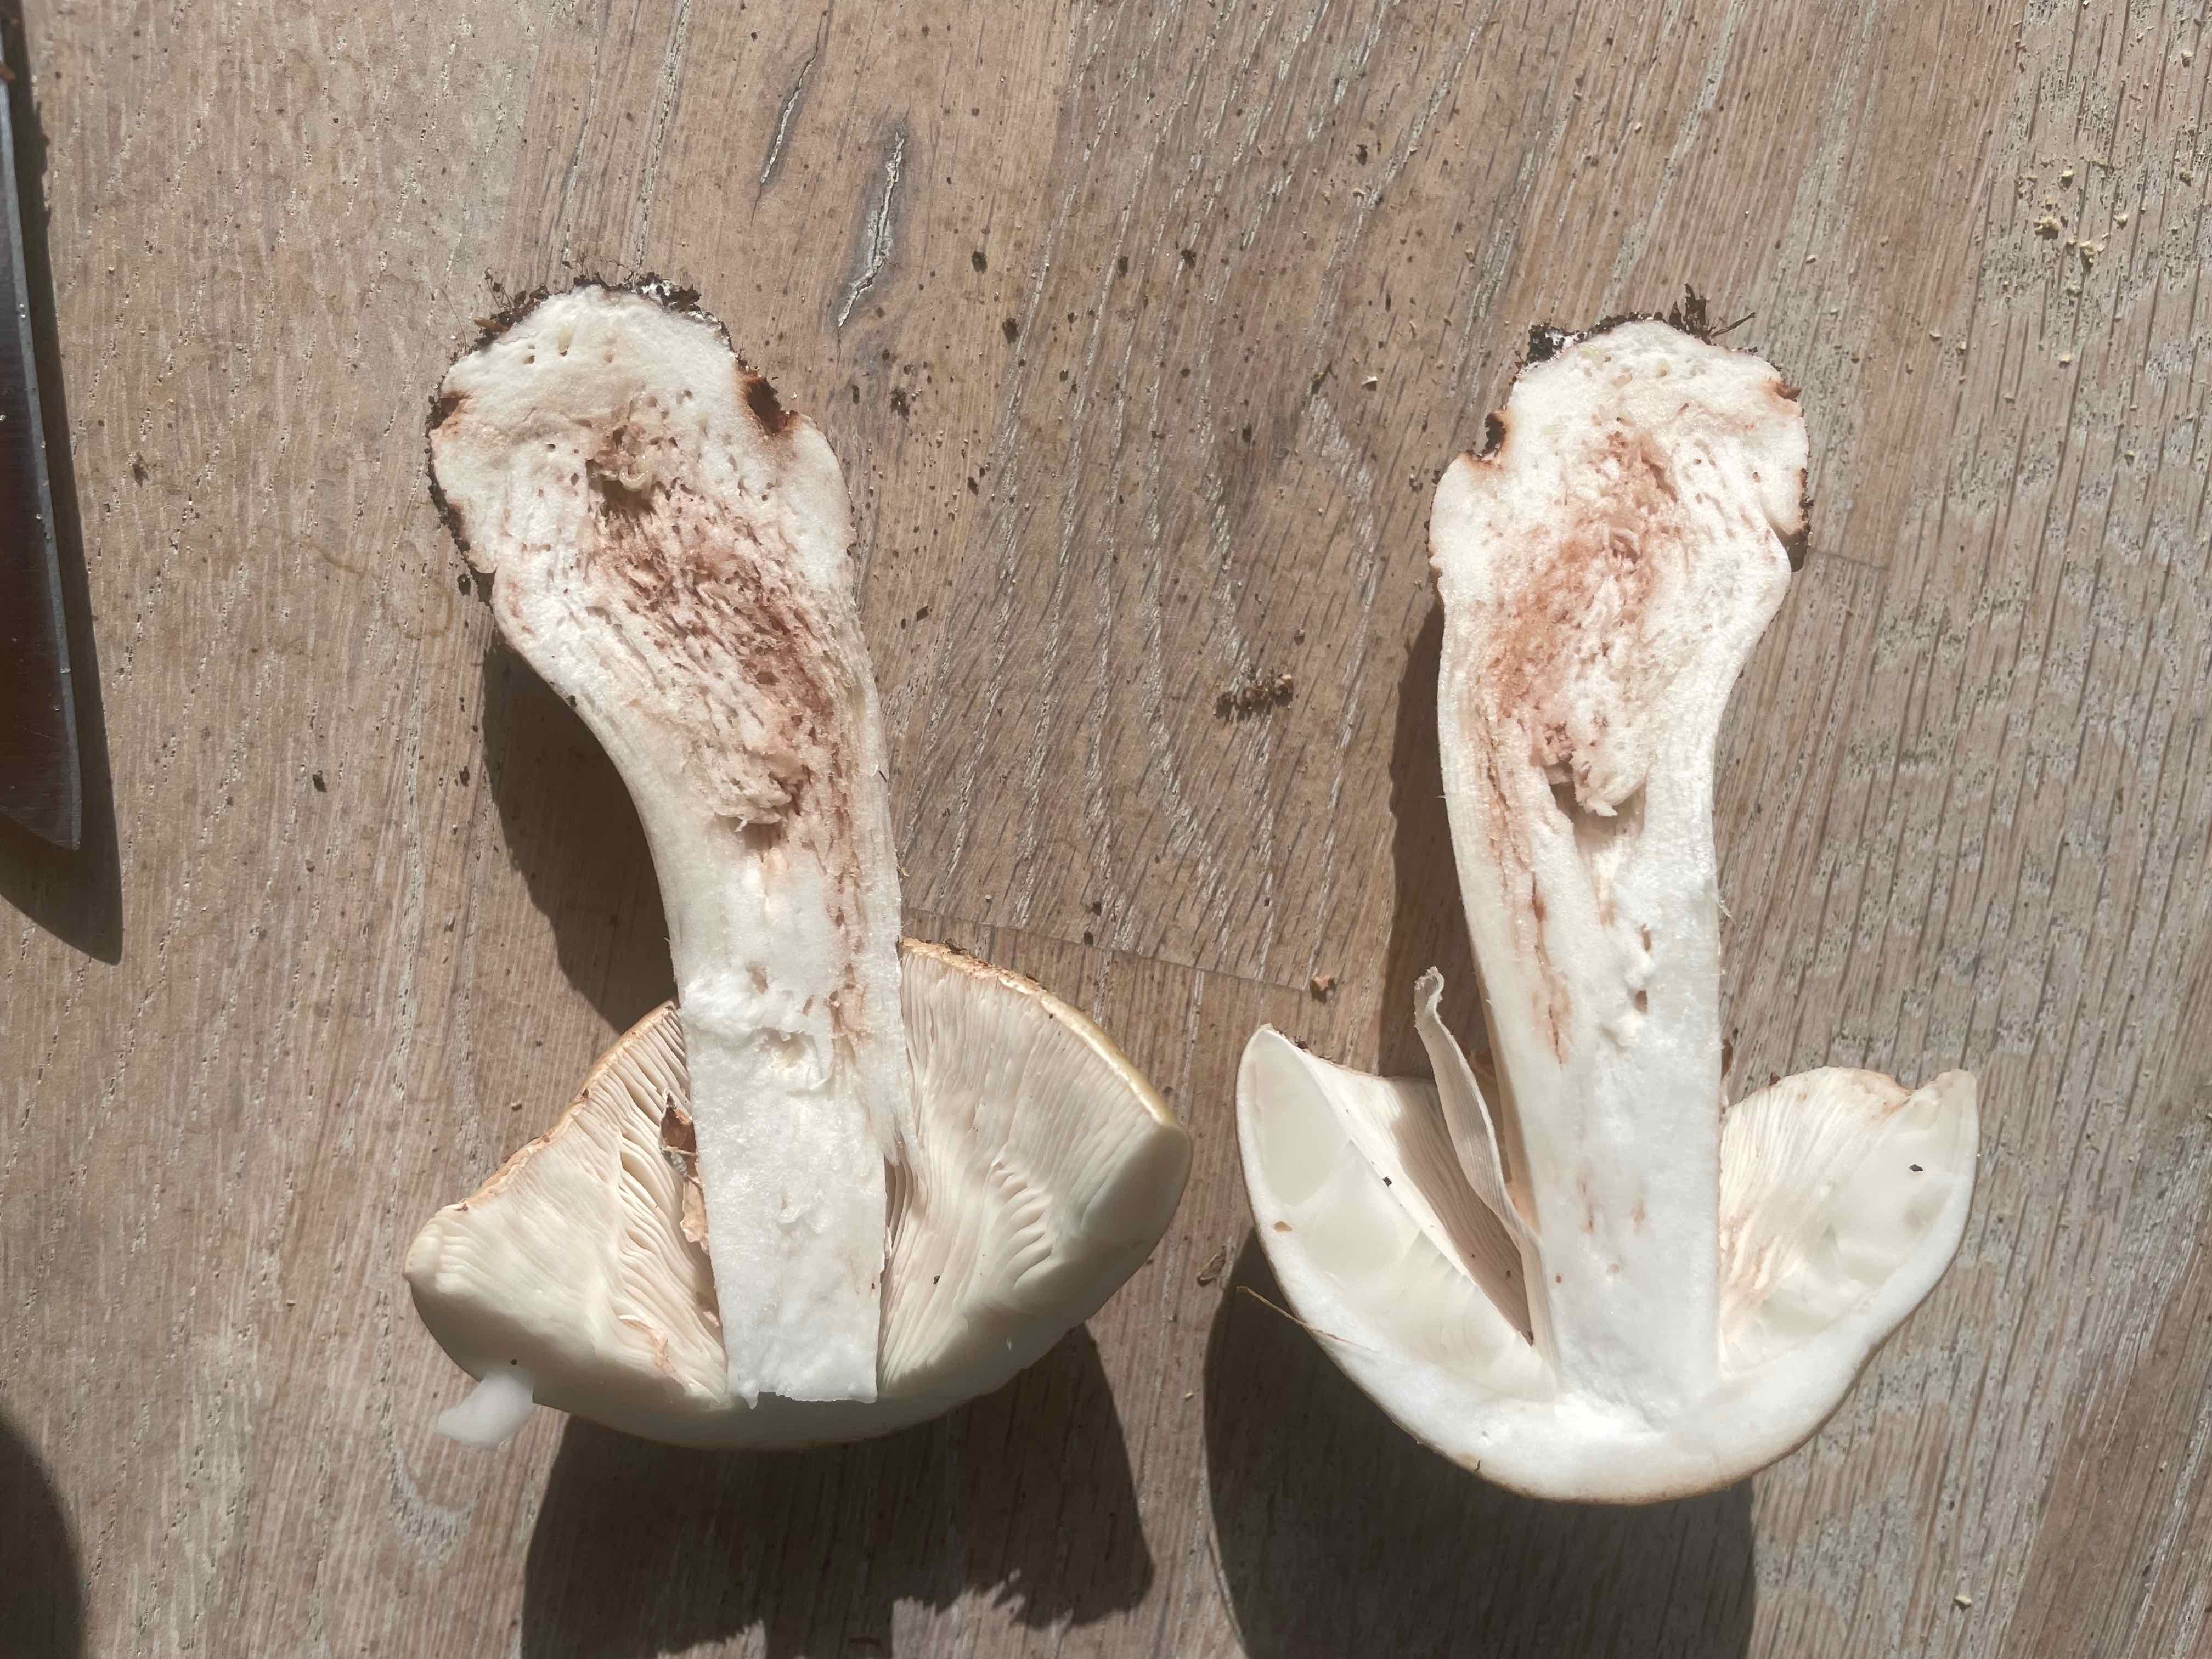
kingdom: Fungi
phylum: Basidiomycota
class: Agaricomycetes
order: Agaricales
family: Amanitaceae
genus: Amanita
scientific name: Amanita rubescens
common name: rødmende fluesvamp
